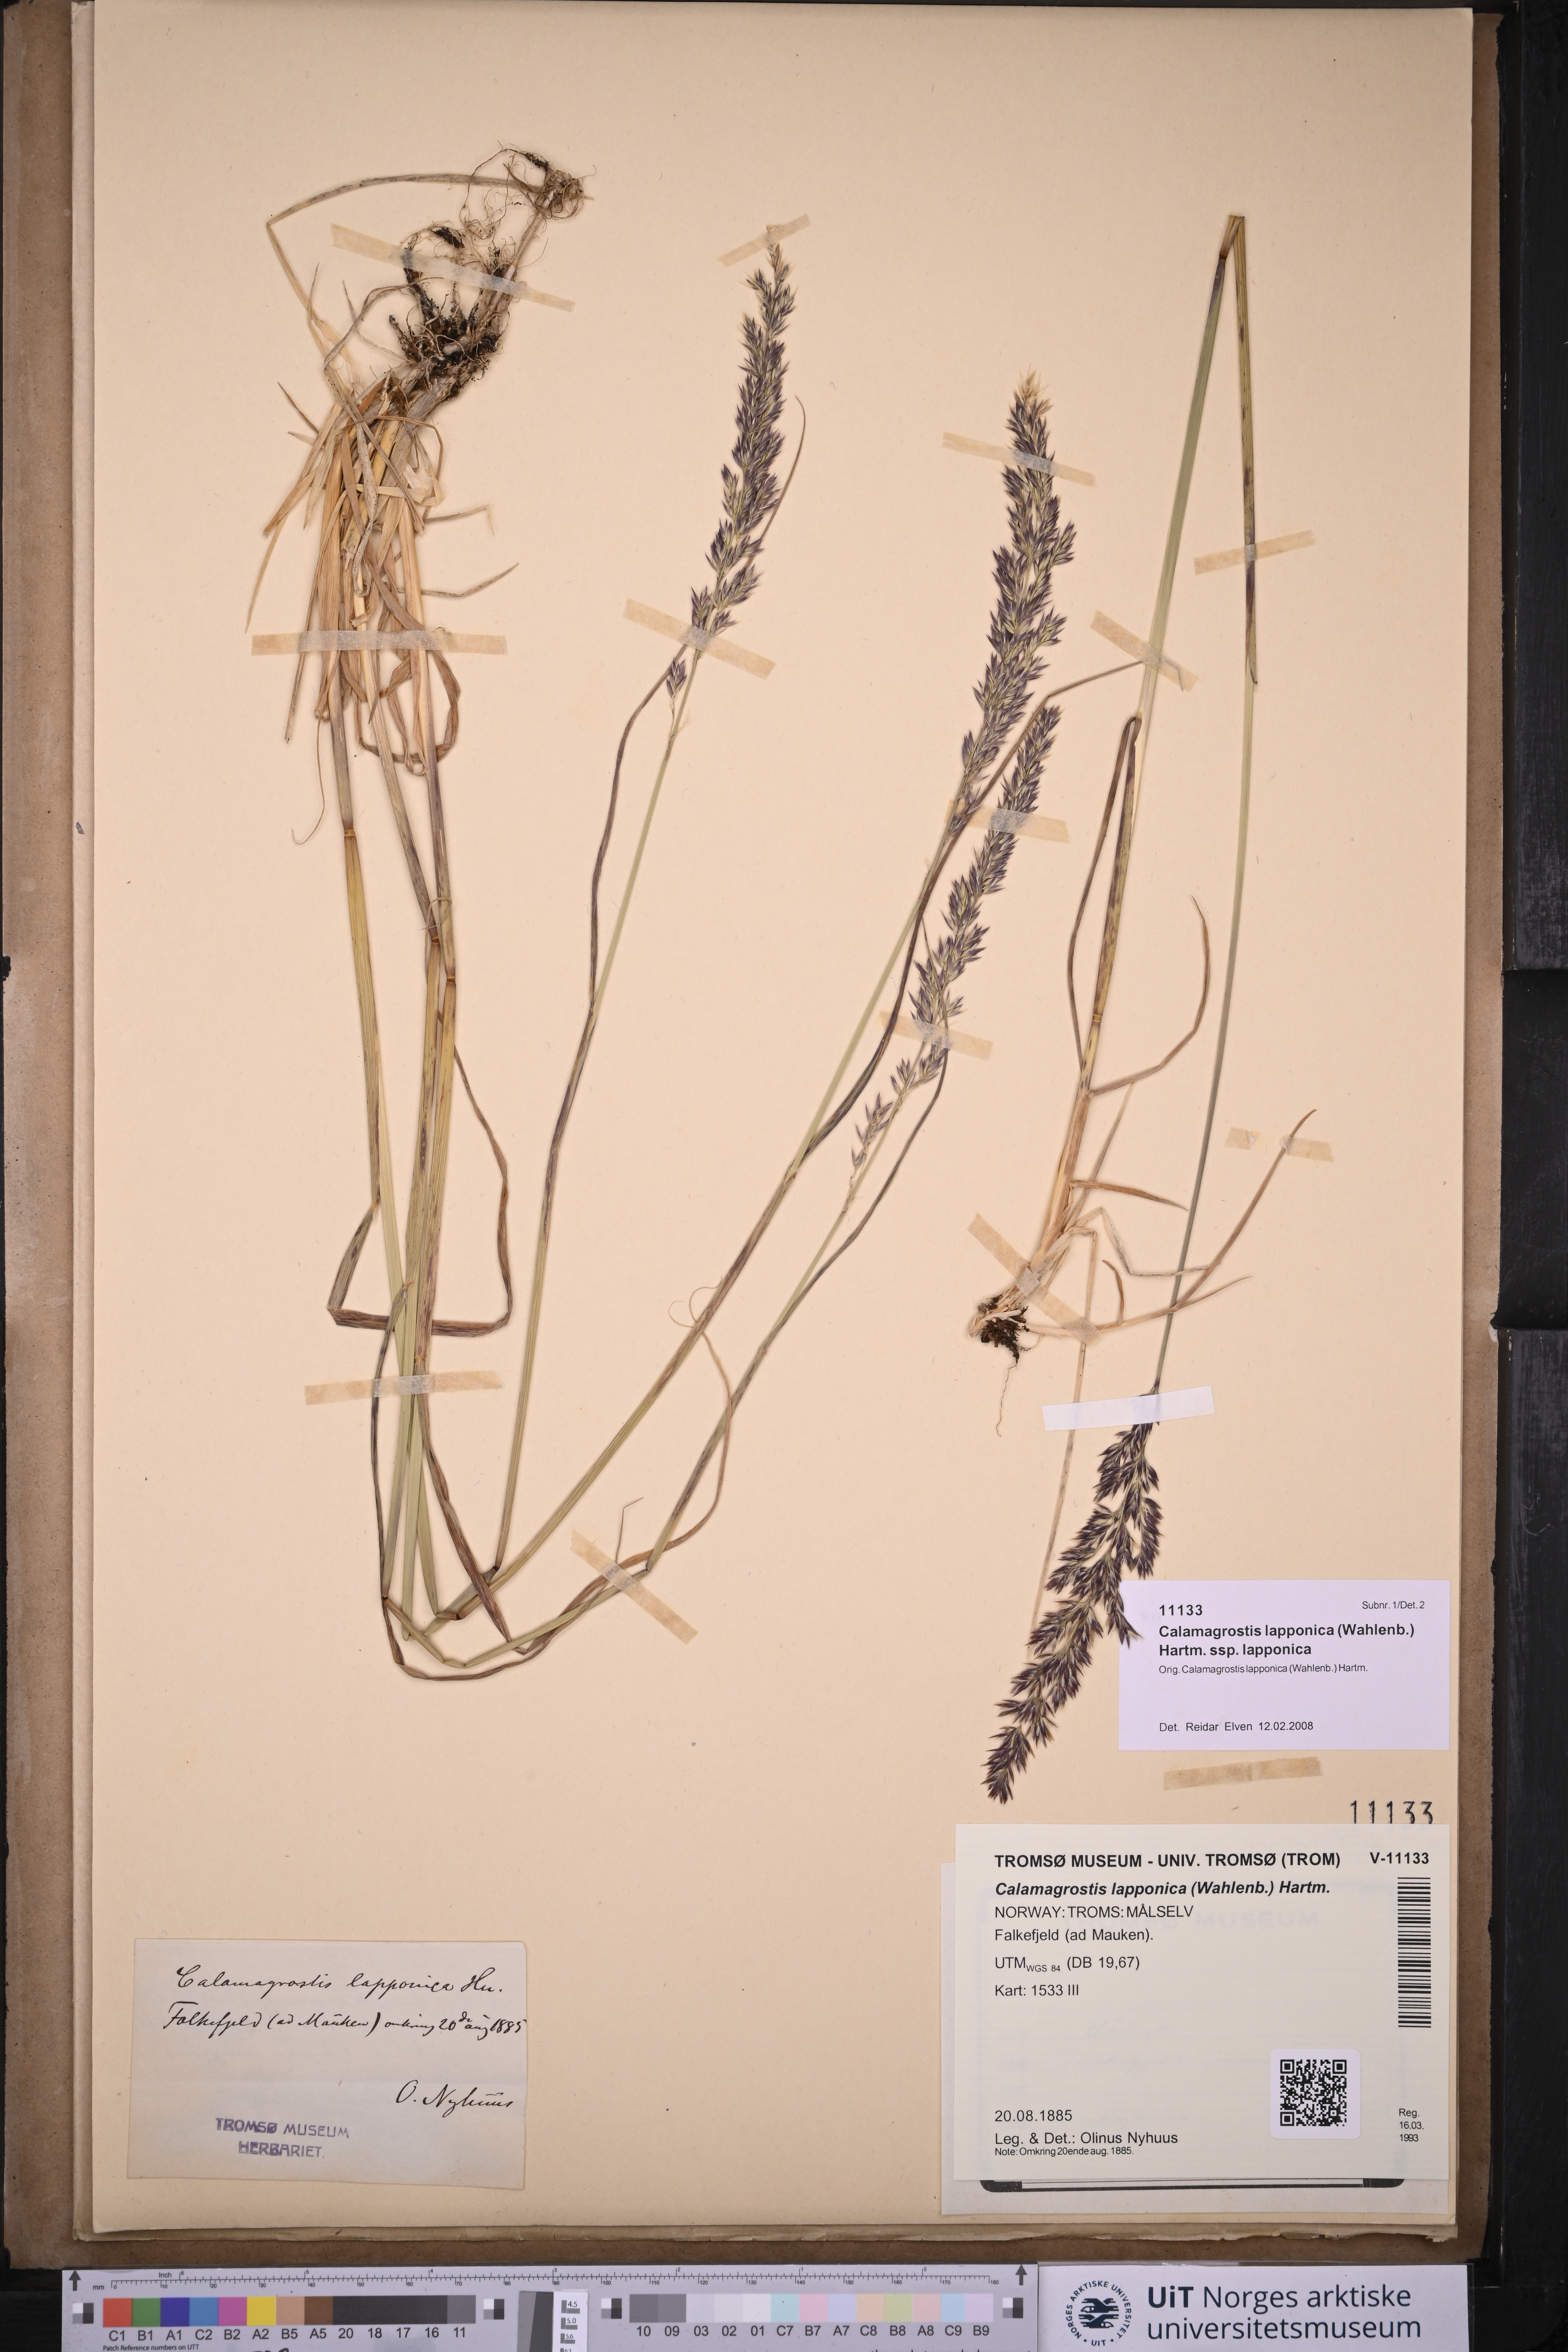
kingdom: Plantae
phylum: Tracheophyta
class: Liliopsida
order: Poales
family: Poaceae
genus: Calamagrostis
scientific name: Calamagrostis lapponica
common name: Lapland reedgrass
